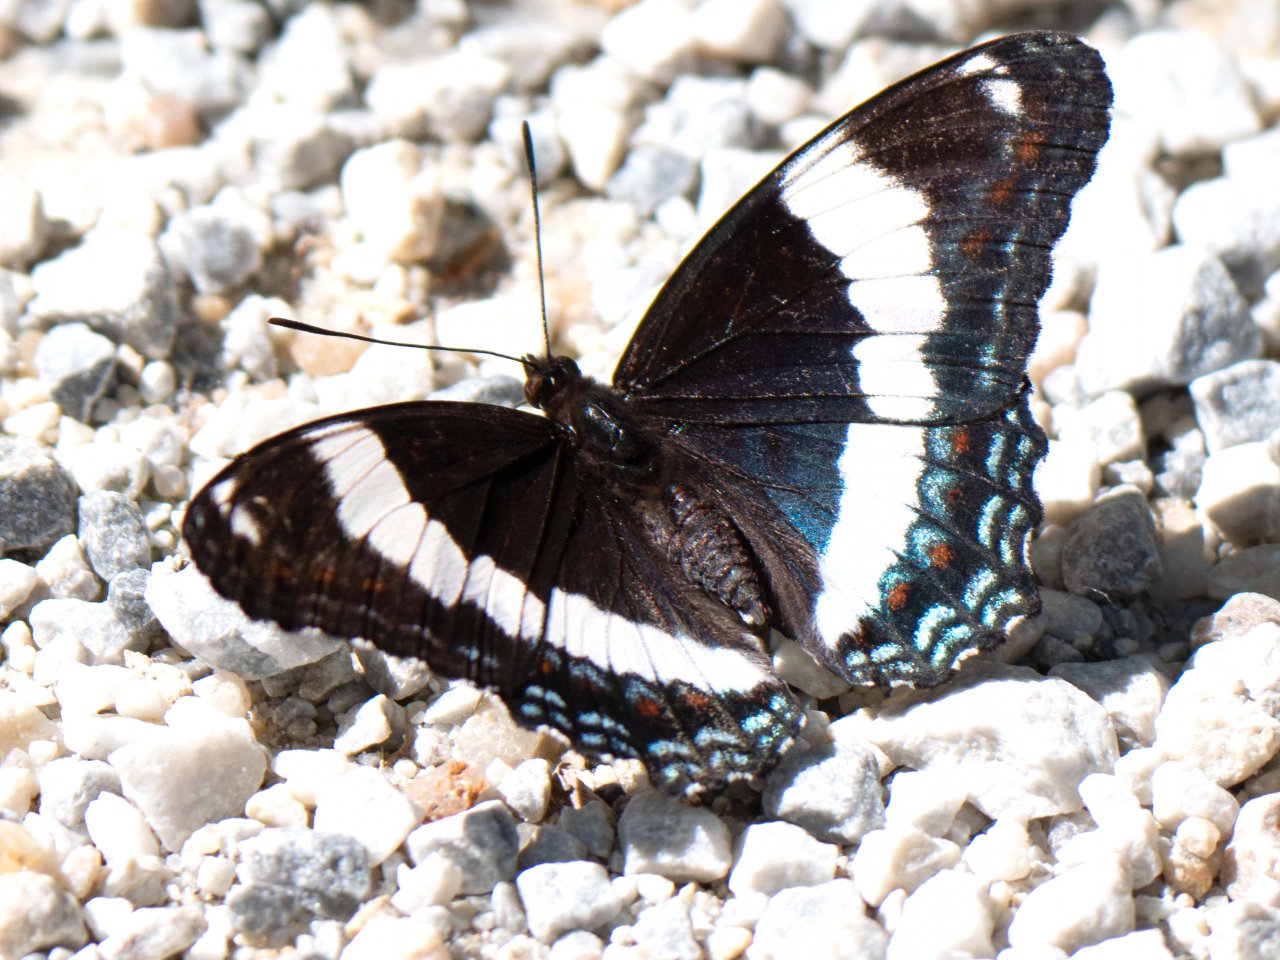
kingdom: Animalia
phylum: Arthropoda
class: Insecta
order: Lepidoptera
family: Nymphalidae
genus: Limenitis
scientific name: Limenitis arthemis
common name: Red-spotted Admiral
